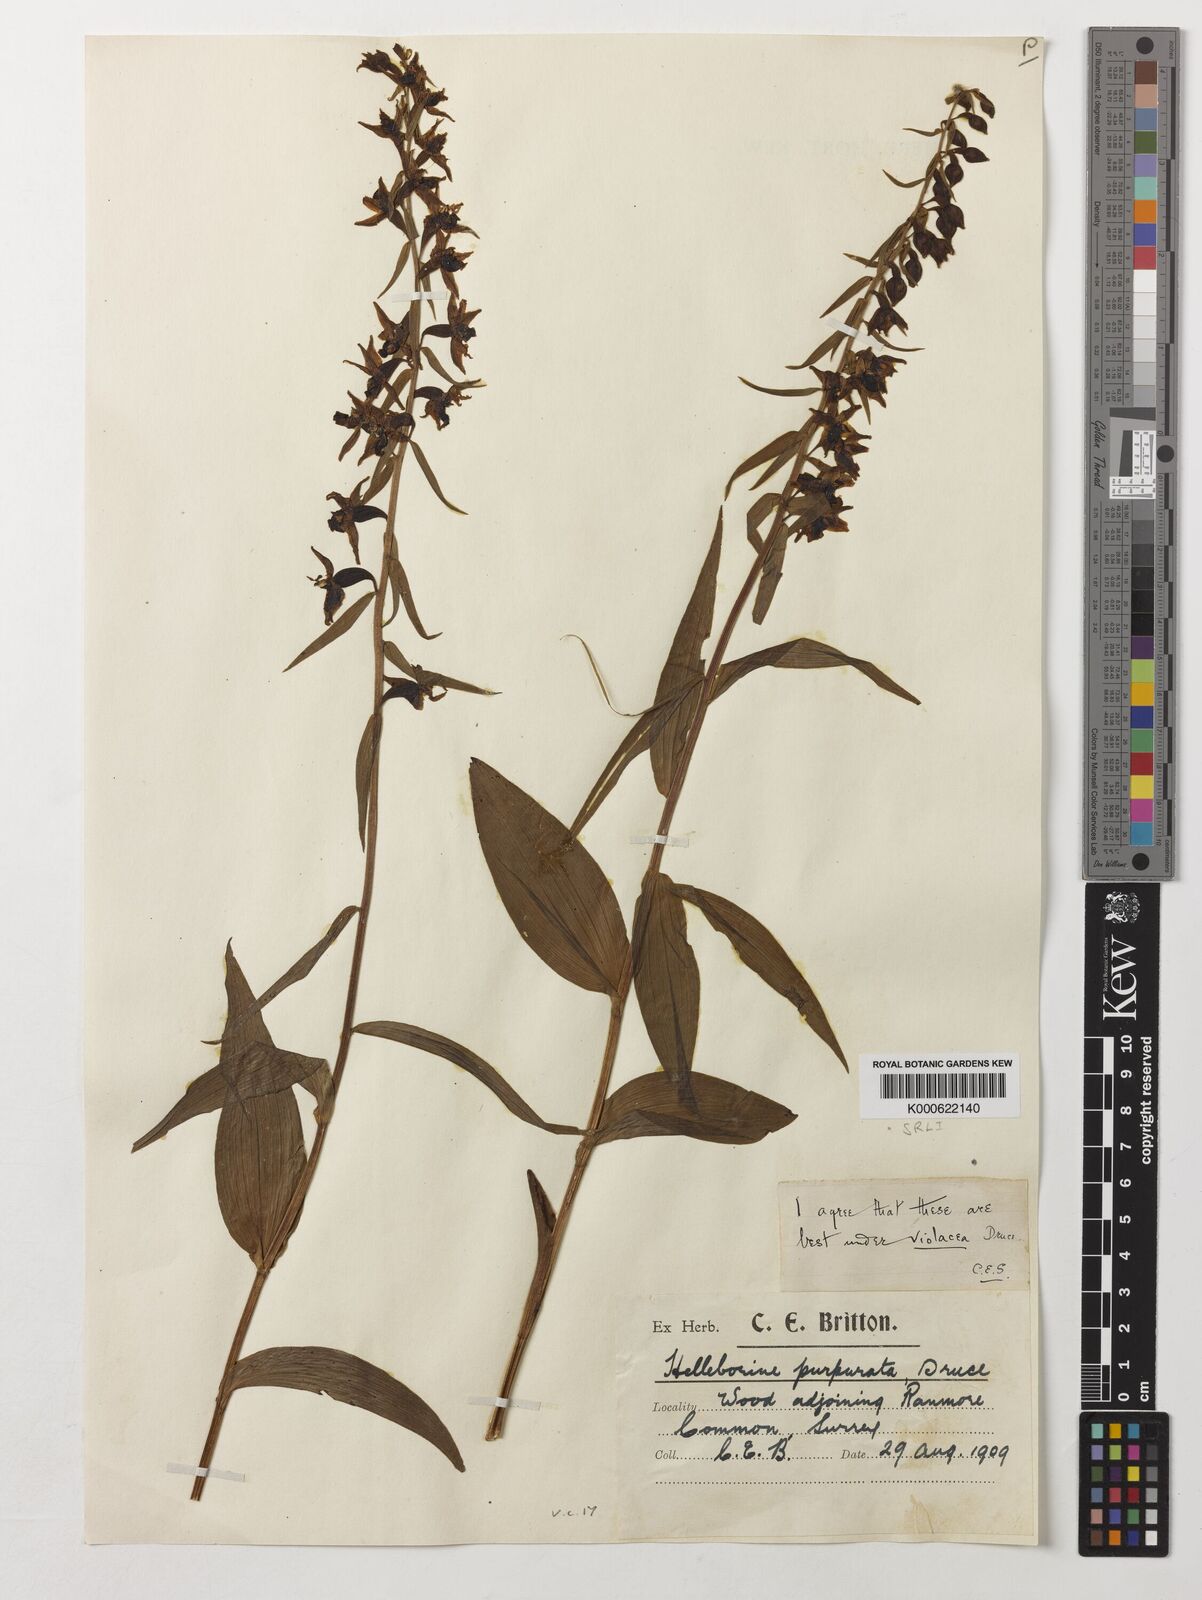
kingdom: Plantae
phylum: Tracheophyta
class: Liliopsida
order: Asparagales
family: Orchidaceae
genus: Epipactis
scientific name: Epipactis purpurata
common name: Violet helleborine
